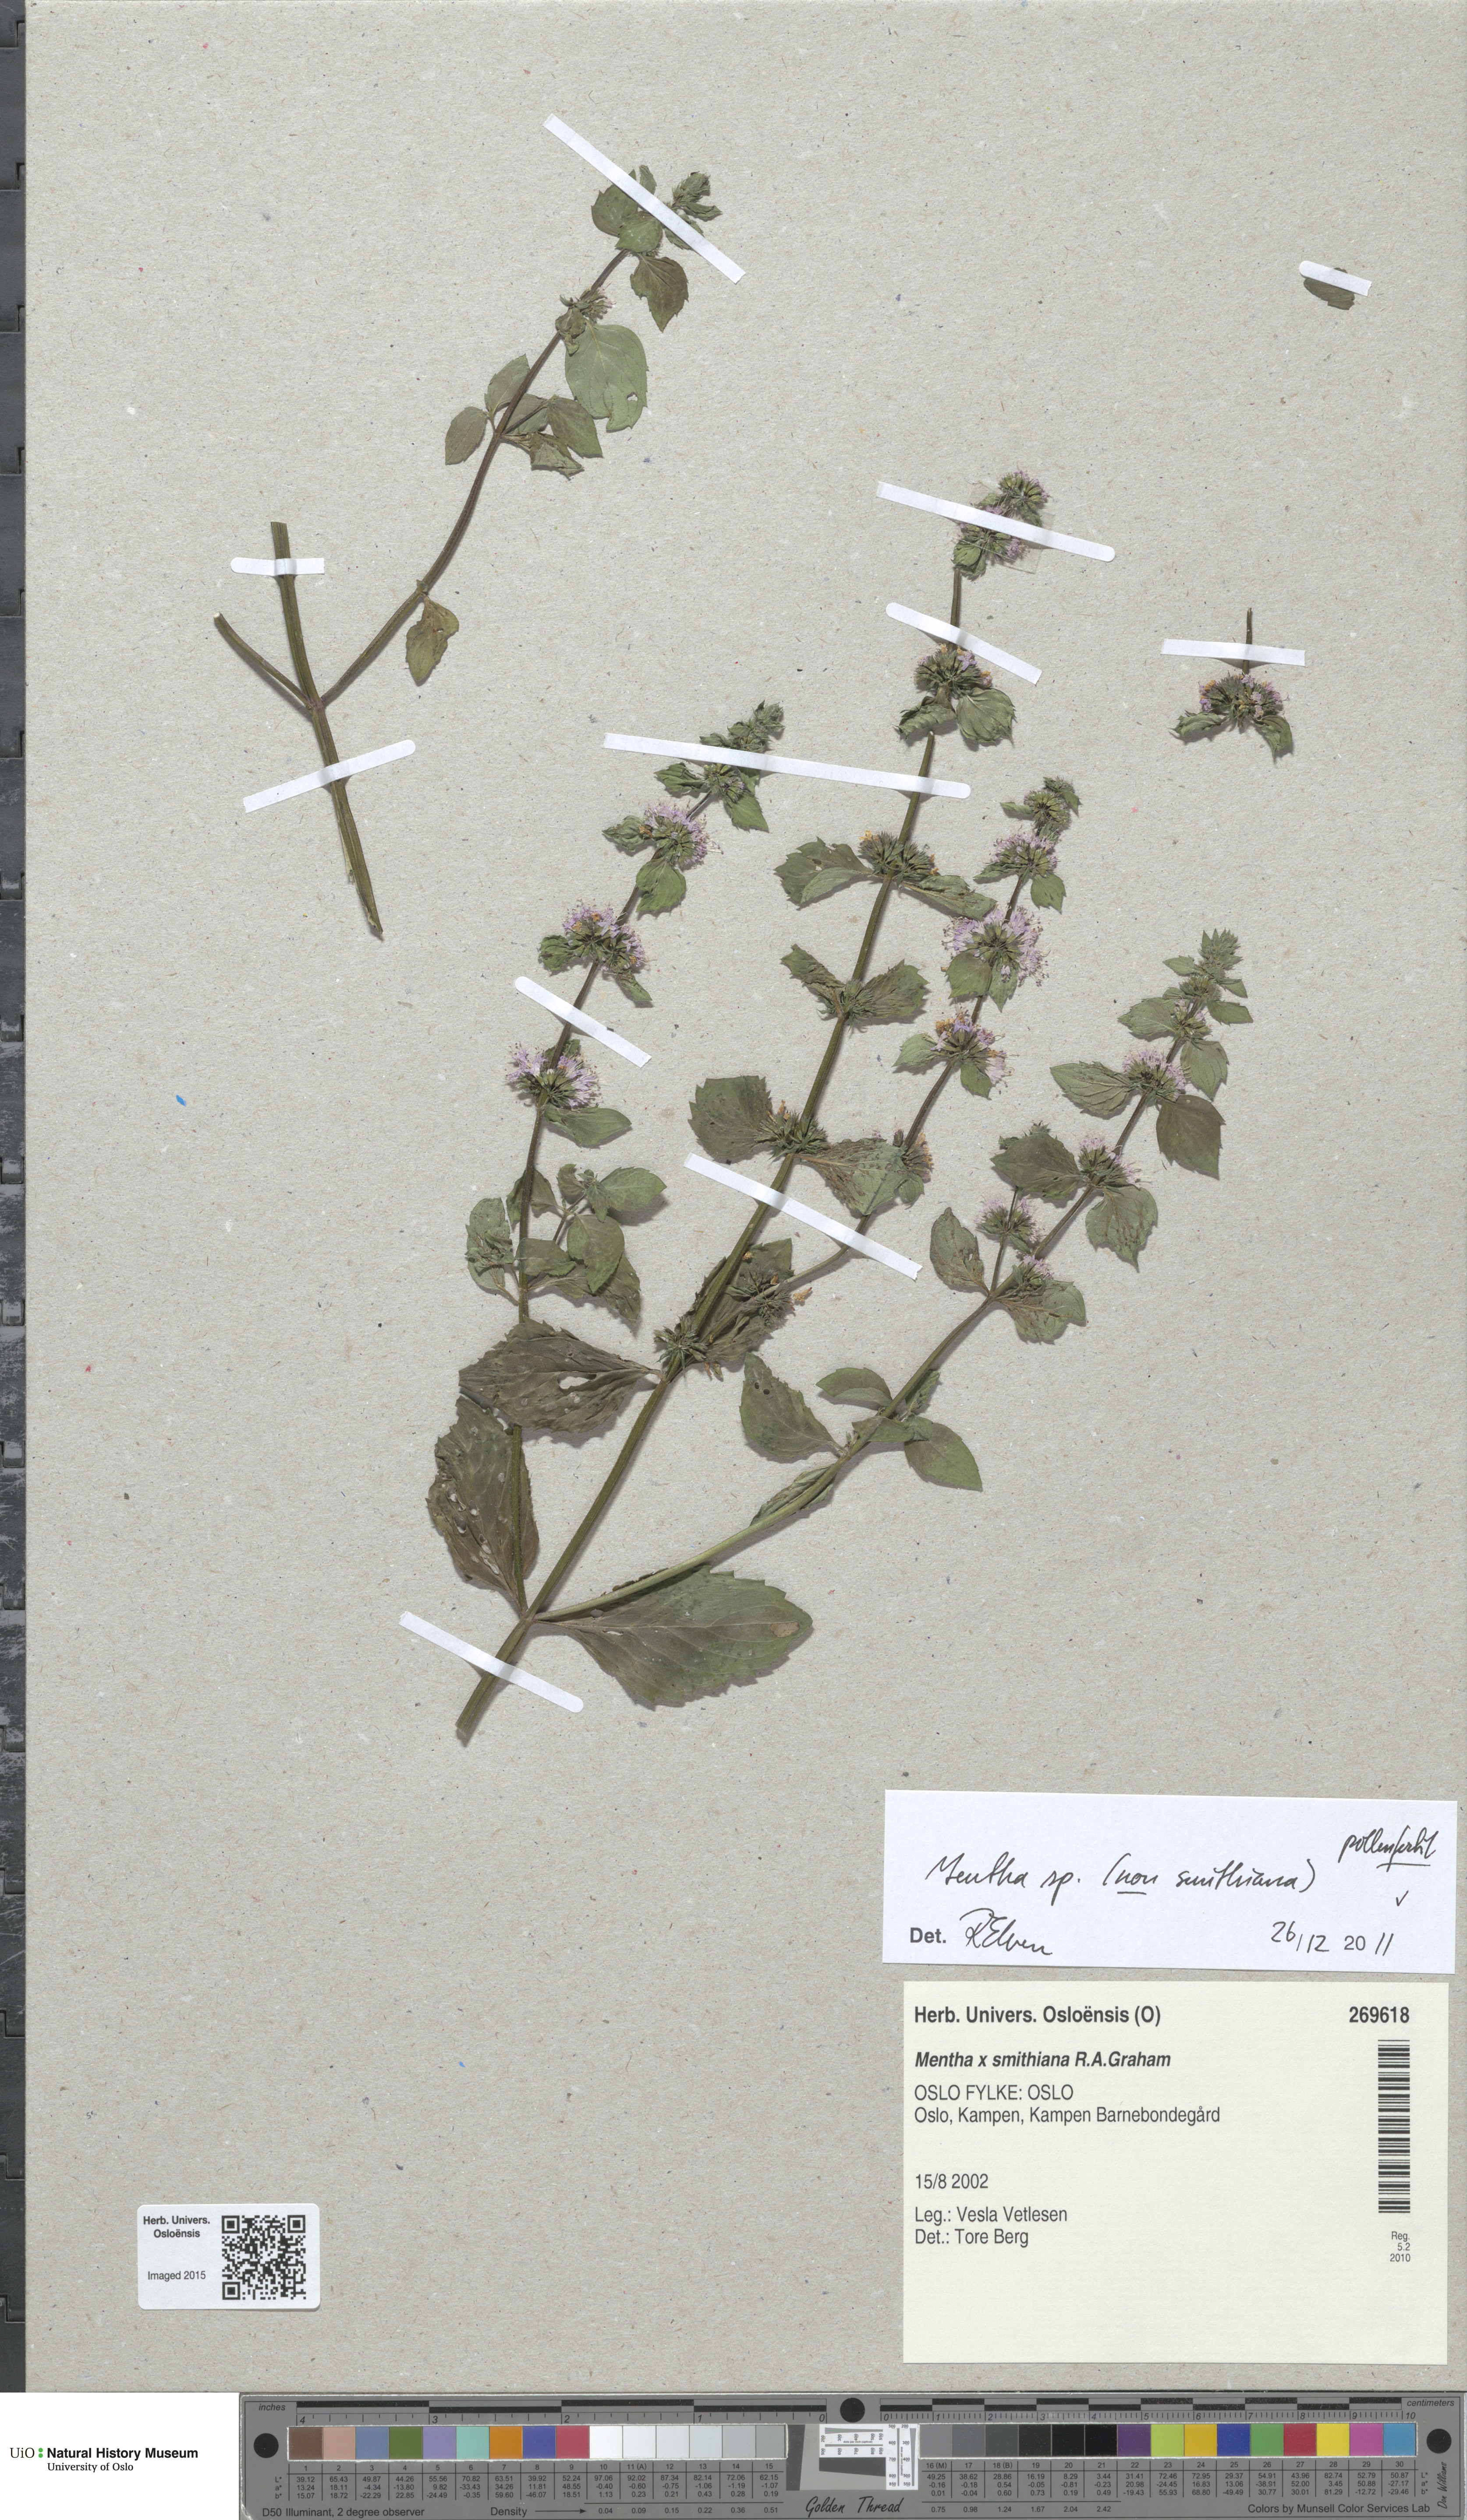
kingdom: Plantae
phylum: Tracheophyta
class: Magnoliopsida
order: Lamiales
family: Lamiaceae
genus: Mentha
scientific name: Mentha
